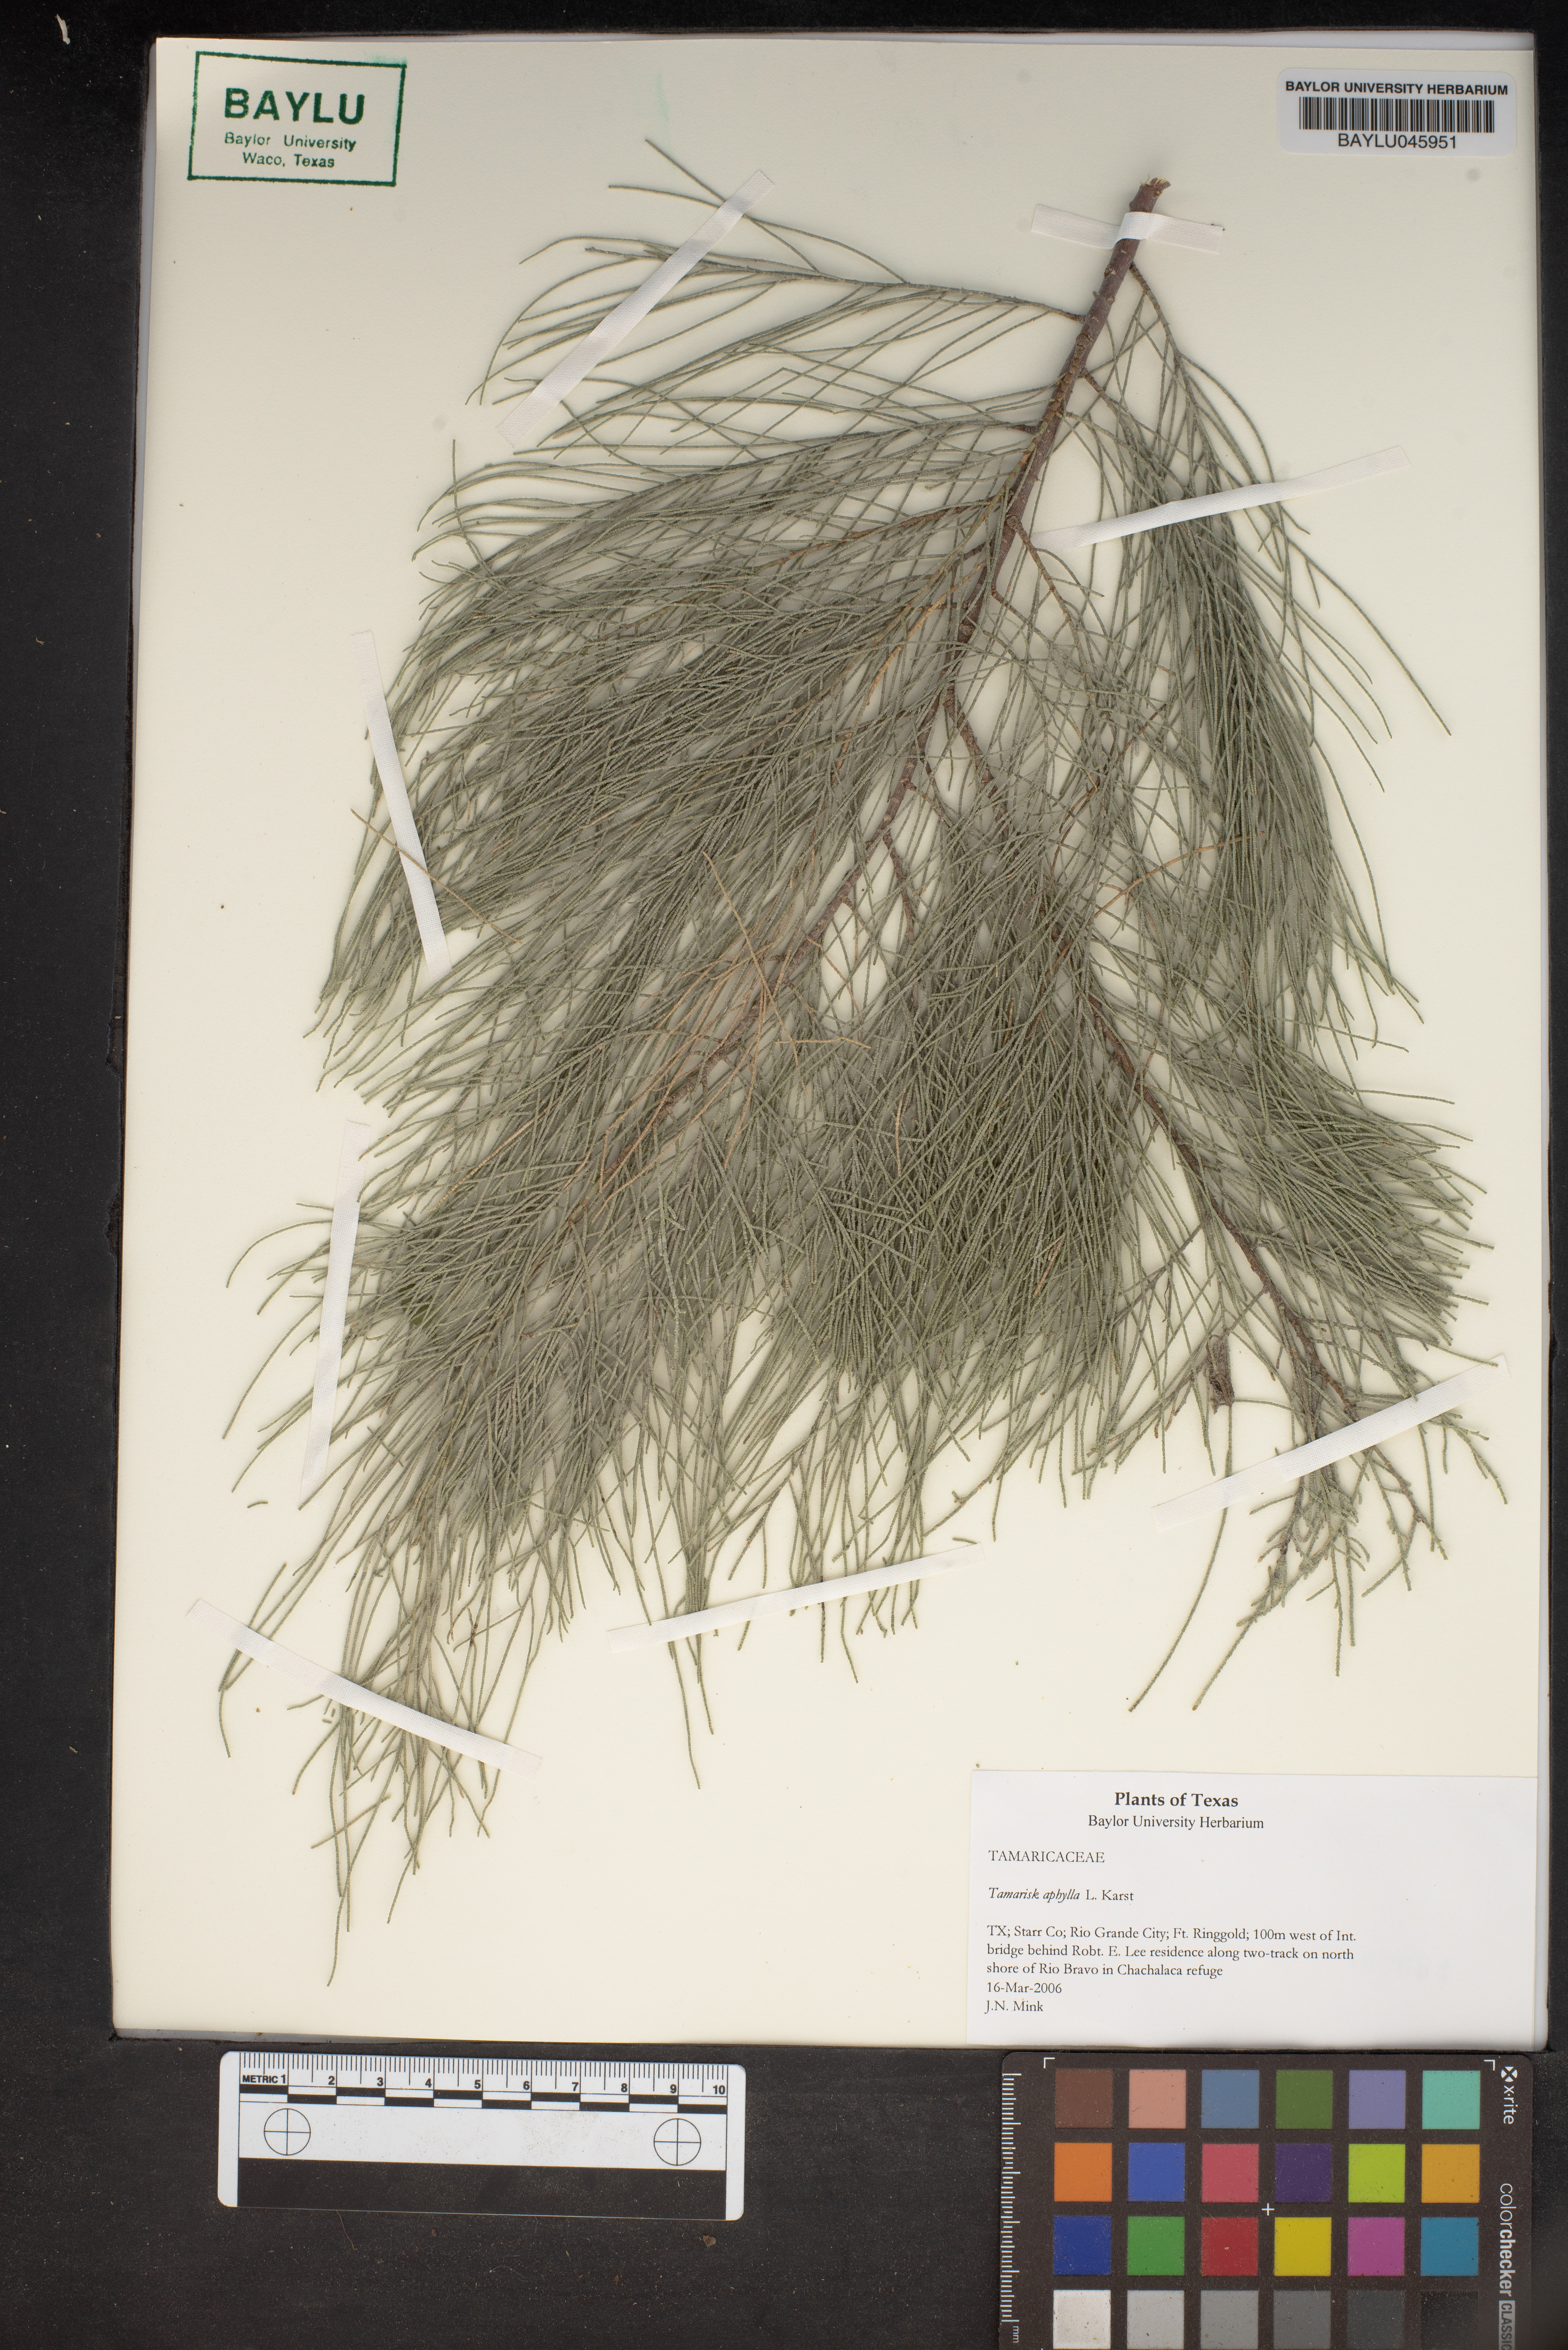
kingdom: Plantae
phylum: Tracheophyta
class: Magnoliopsida
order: Caryophyllales
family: Tamaricaceae
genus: Tamarix
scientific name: Tamarix aphylla
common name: Athel tamarisk
